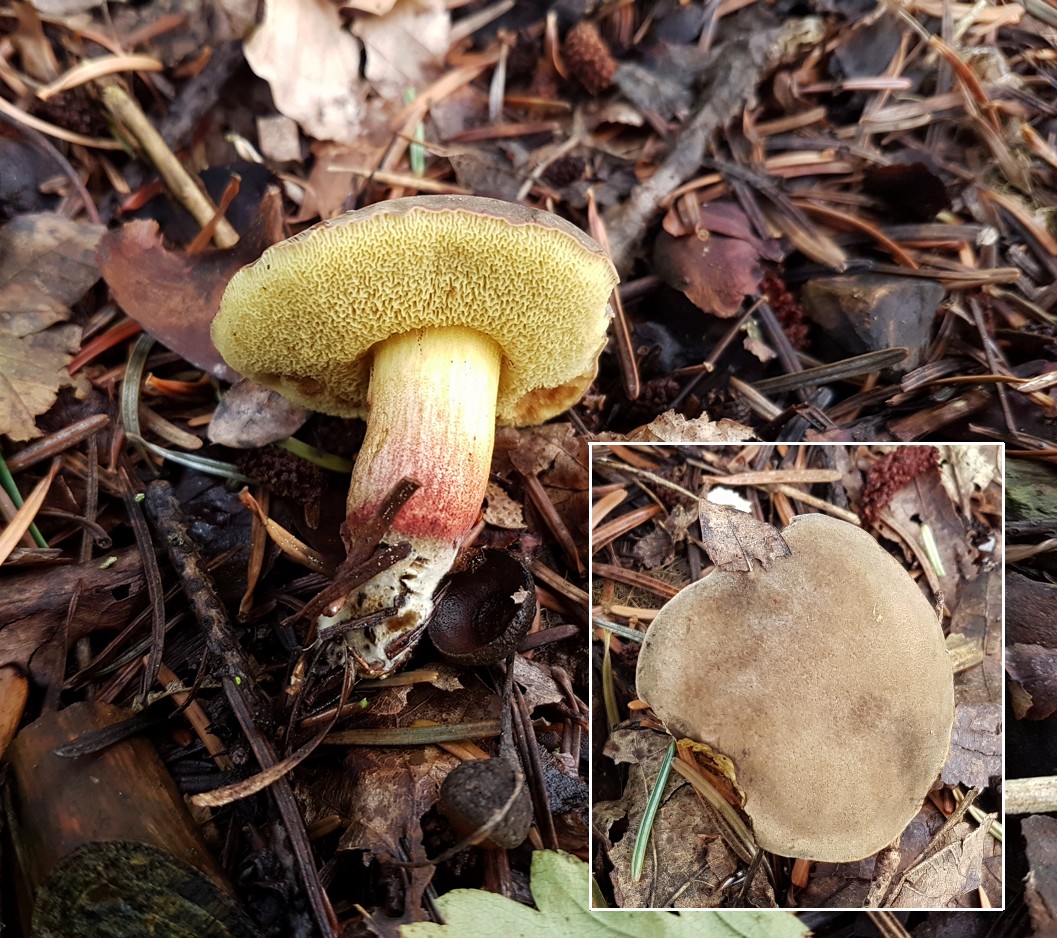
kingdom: Fungi
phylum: Basidiomycota
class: Agaricomycetes
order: Boletales
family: Boletaceae
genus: Xerocomellus
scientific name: Xerocomellus
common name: dværgrørhat
